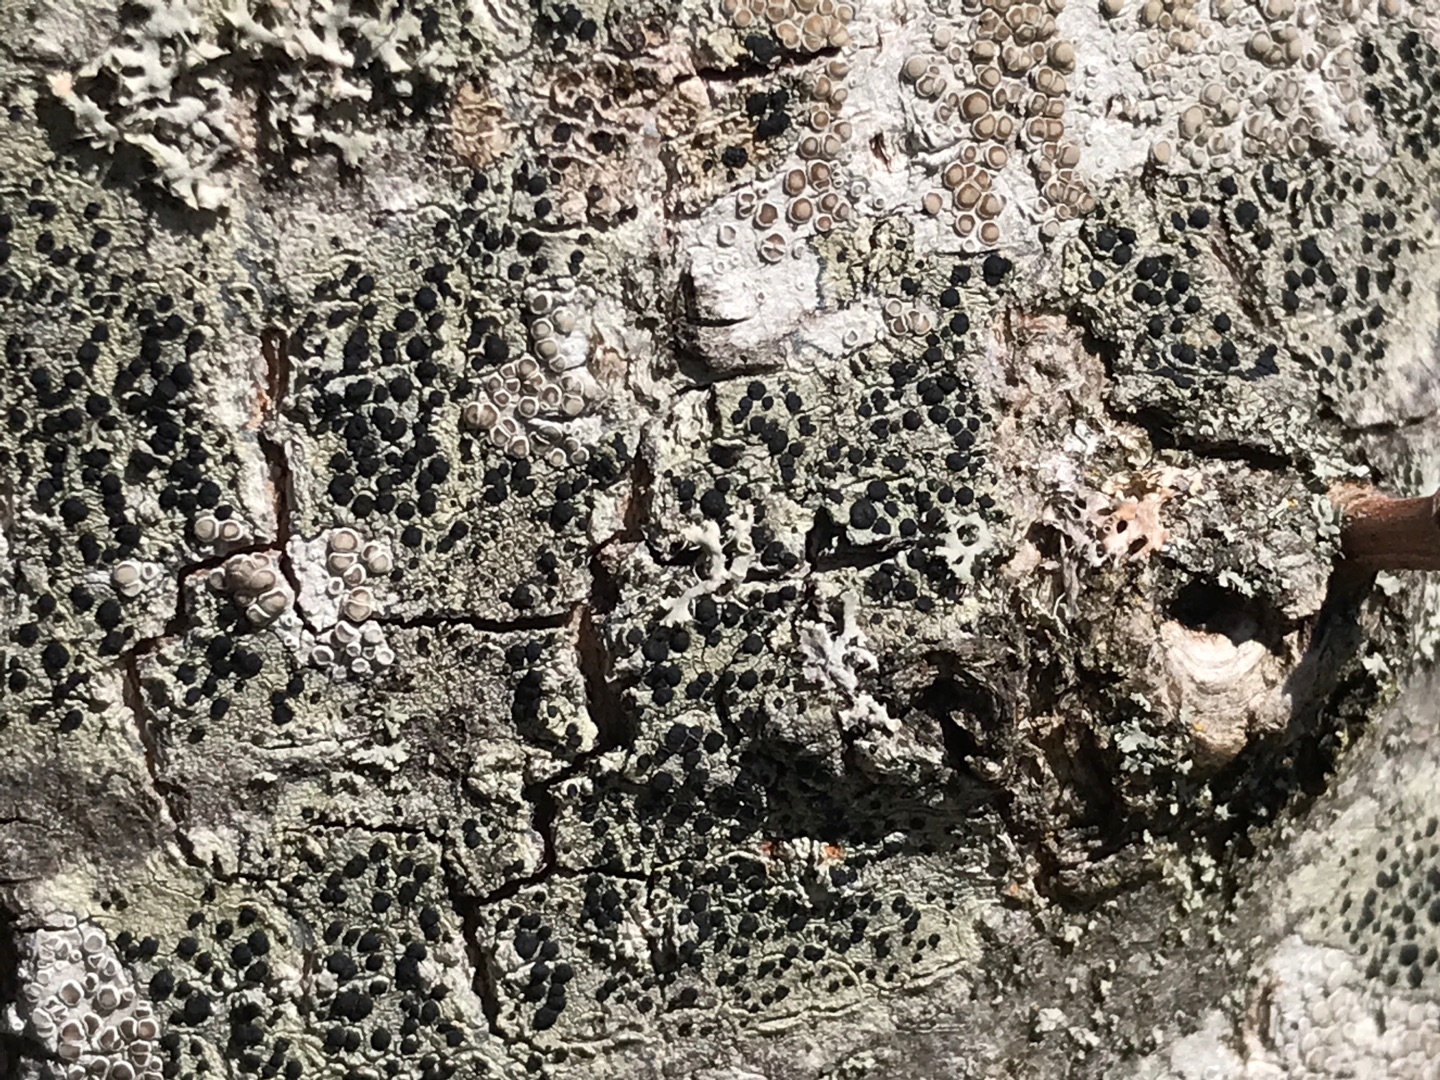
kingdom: Fungi
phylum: Ascomycota
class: Lecanoromycetes
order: Lecanorales
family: Lecanoraceae
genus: Lecidella
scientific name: Lecidella elaeochroma
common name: Grågrøn skivelav
